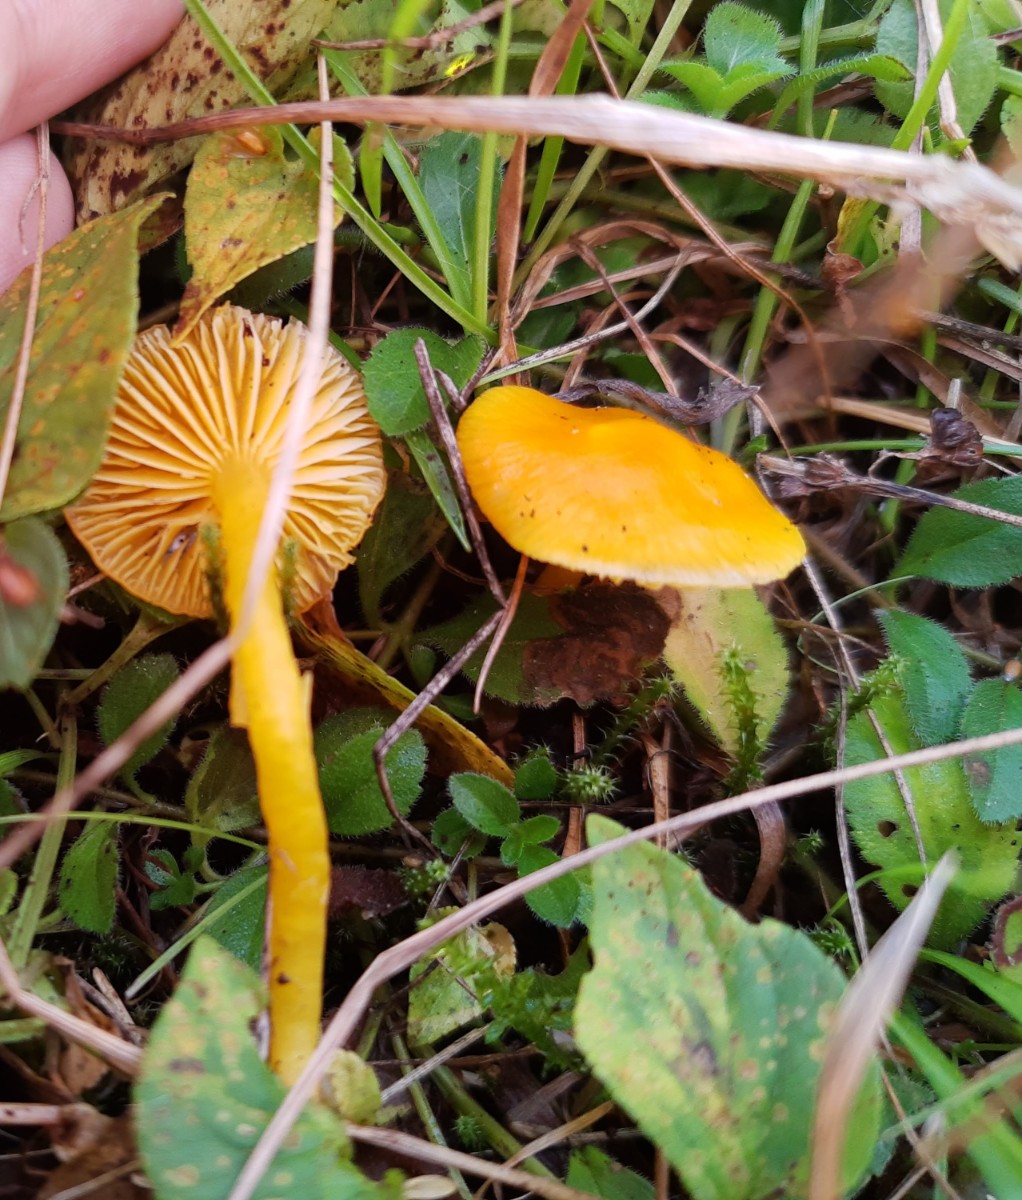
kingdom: Fungi
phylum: Basidiomycota
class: Agaricomycetes
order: Agaricales
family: Hygrophoraceae
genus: Hygrocybe
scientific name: Hygrocybe chlorophana
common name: gul vokshat
